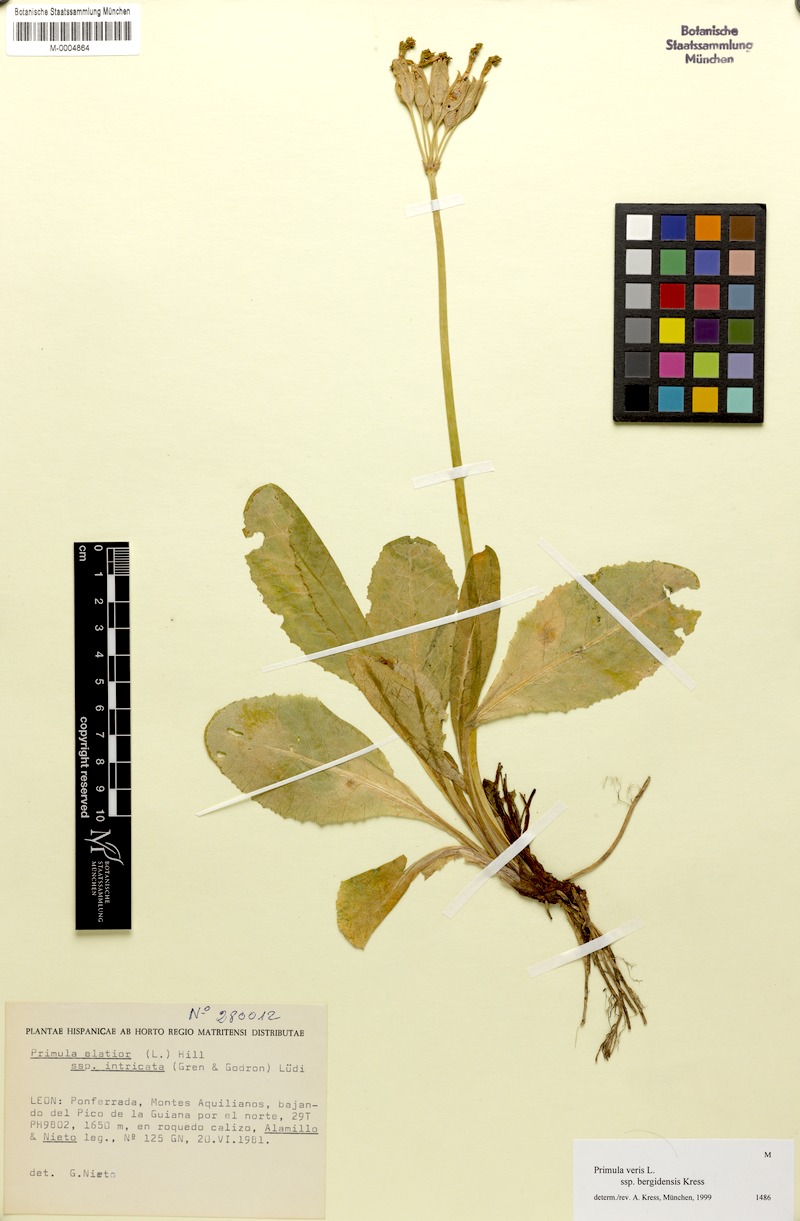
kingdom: Plantae
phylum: Tracheophyta
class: Magnoliopsida
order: Ericales
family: Primulaceae
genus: Primula
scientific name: Primula veris
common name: Cowslip
